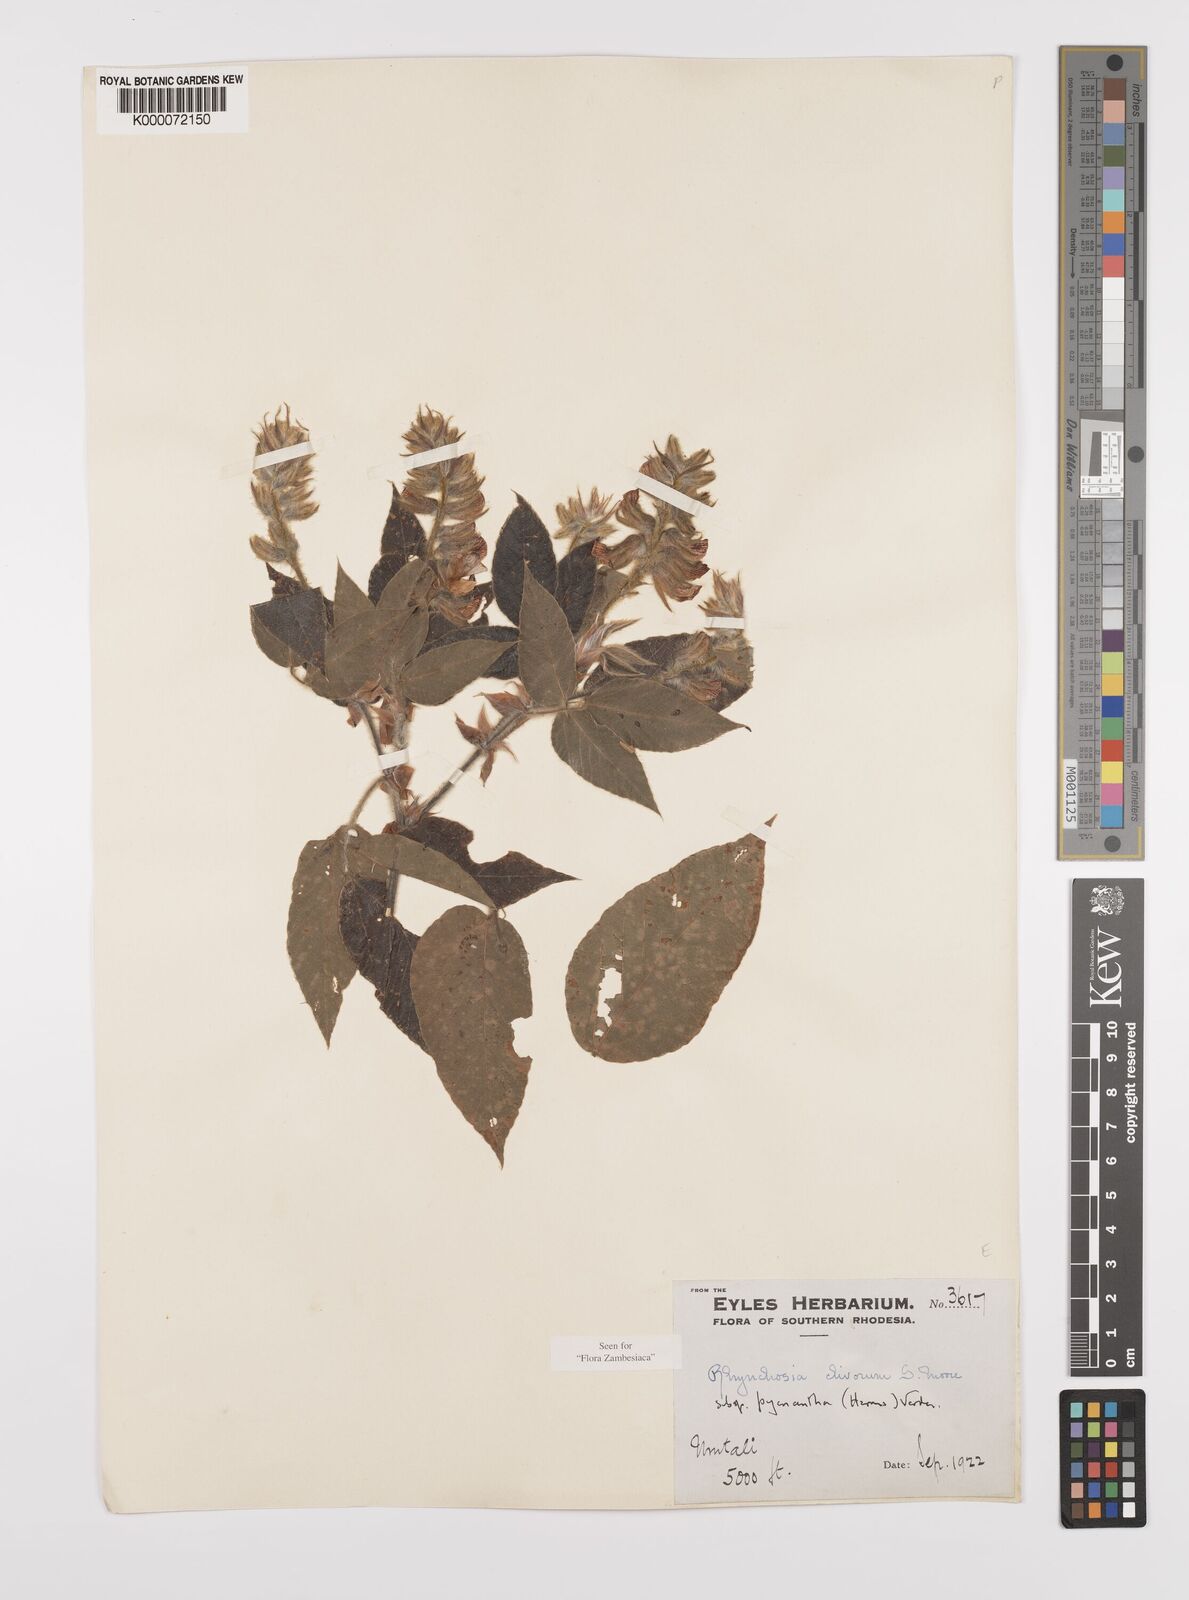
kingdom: Plantae
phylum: Tracheophyta
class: Magnoliopsida
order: Fabales
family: Fabaceae
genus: Rhynchosia
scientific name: Rhynchosia clivorum
